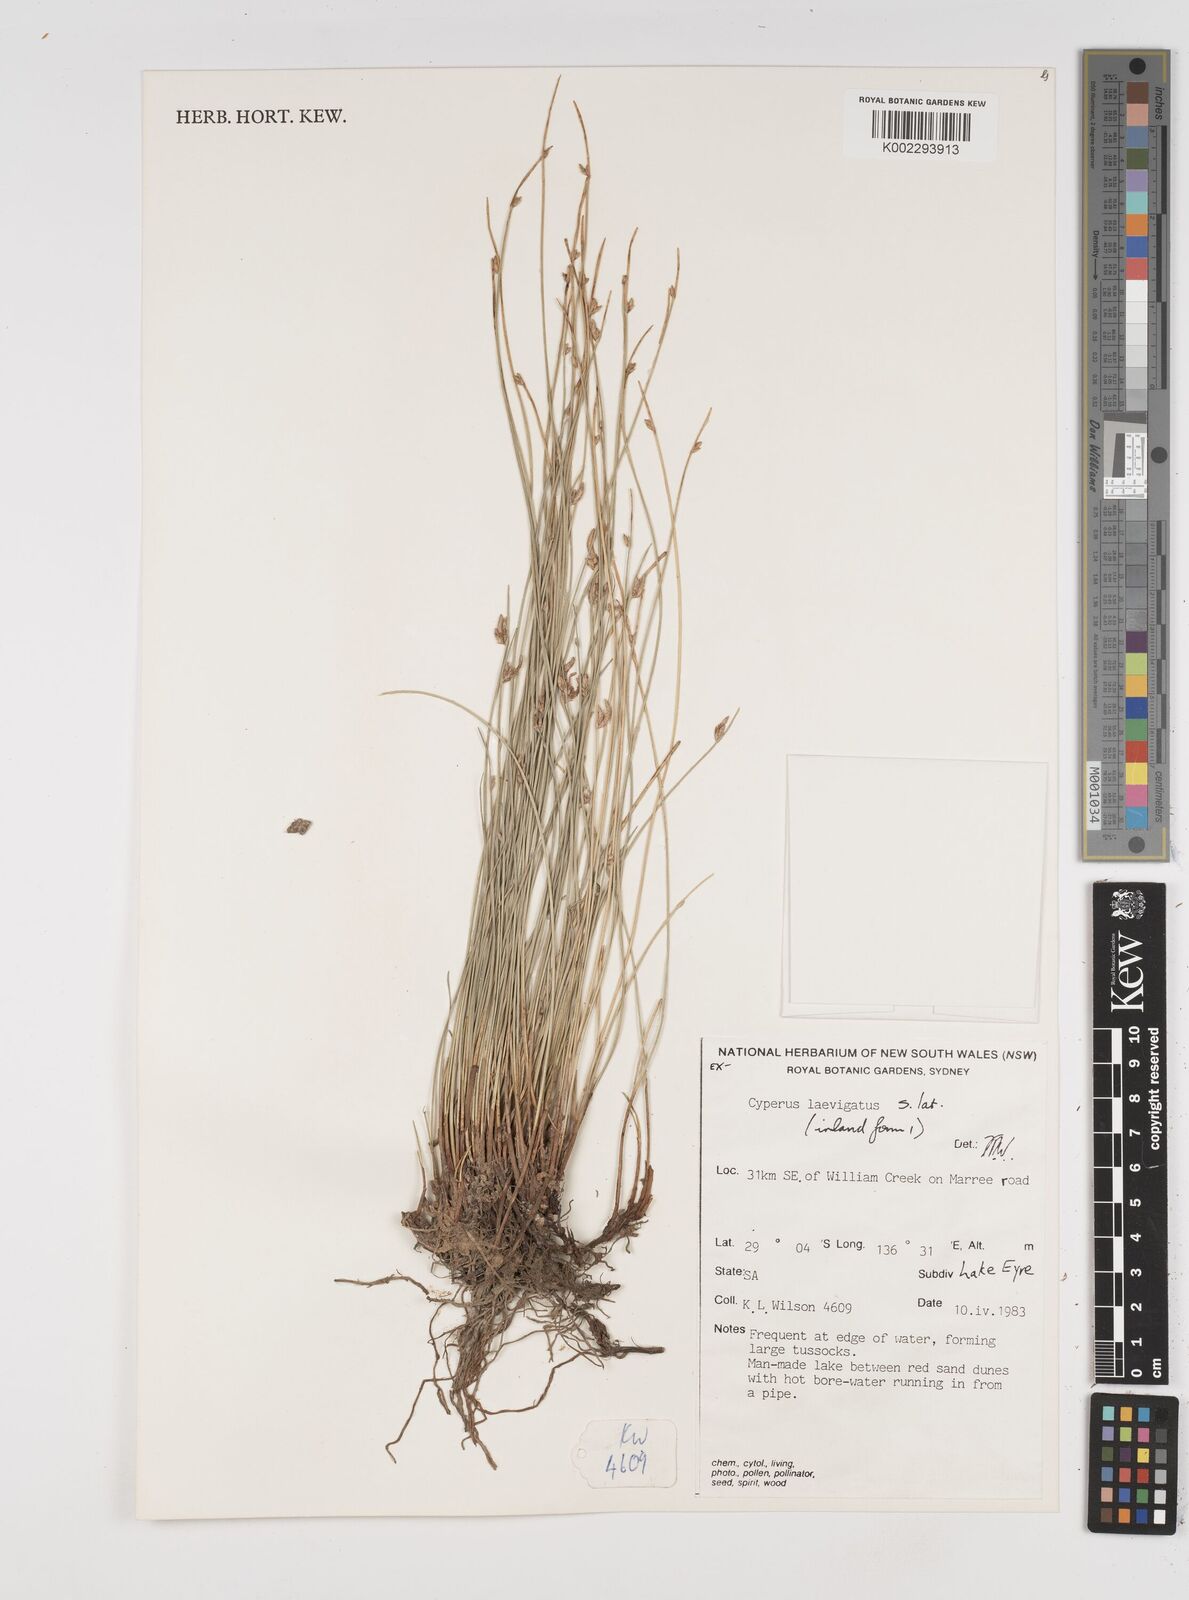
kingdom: Plantae
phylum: Tracheophyta
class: Liliopsida
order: Poales
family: Cyperaceae
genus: Cyperus
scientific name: Cyperus laevigatus
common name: Smooth flat sedge
